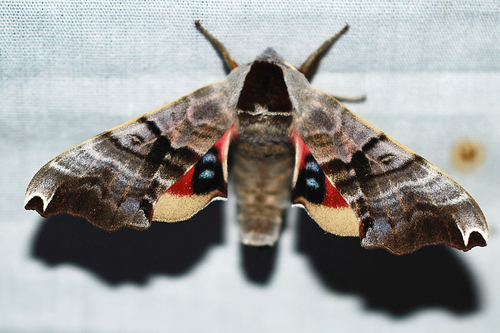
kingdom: Animalia
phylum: Arthropoda
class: Insecta
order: Lepidoptera
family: Sphingidae
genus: Smerinthus
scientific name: Smerinthus jamaicensis
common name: Twin spotted sphinx
